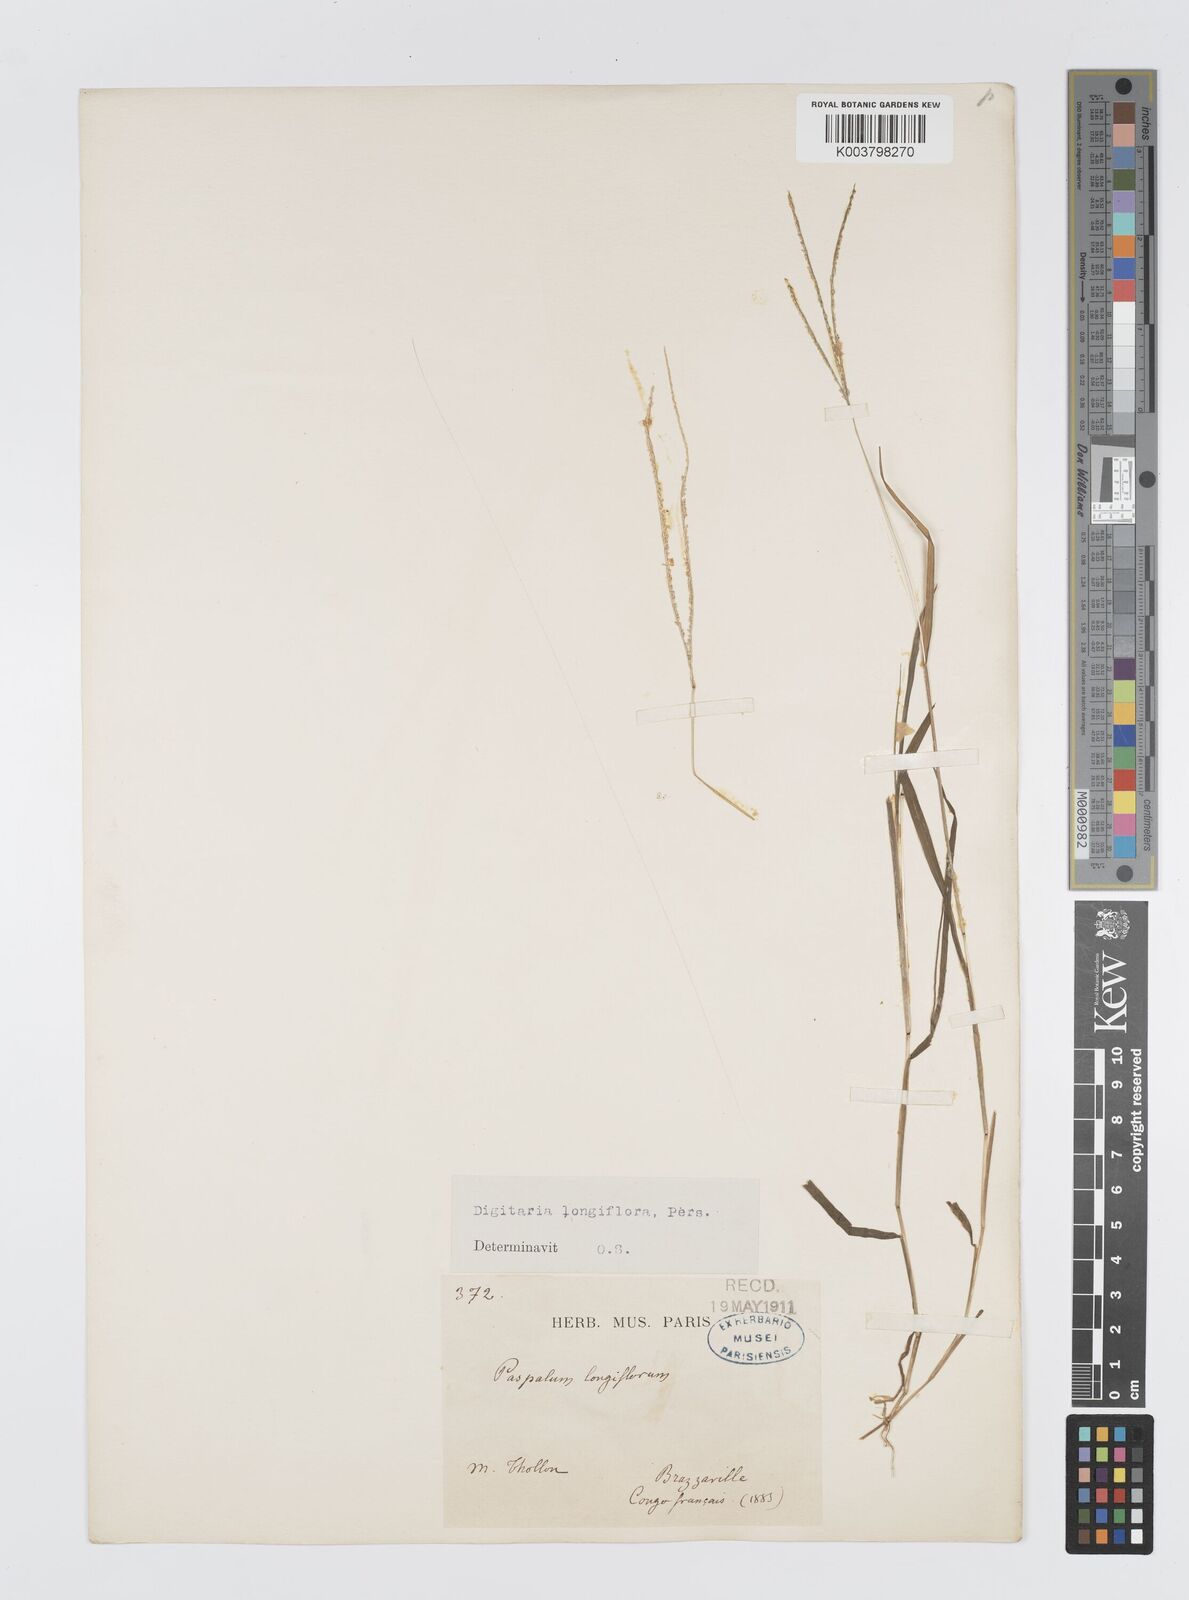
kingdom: Plantae
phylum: Tracheophyta
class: Liliopsida
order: Poales
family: Poaceae
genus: Digitaria
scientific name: Digitaria longiflora
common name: Wire crabgrass
